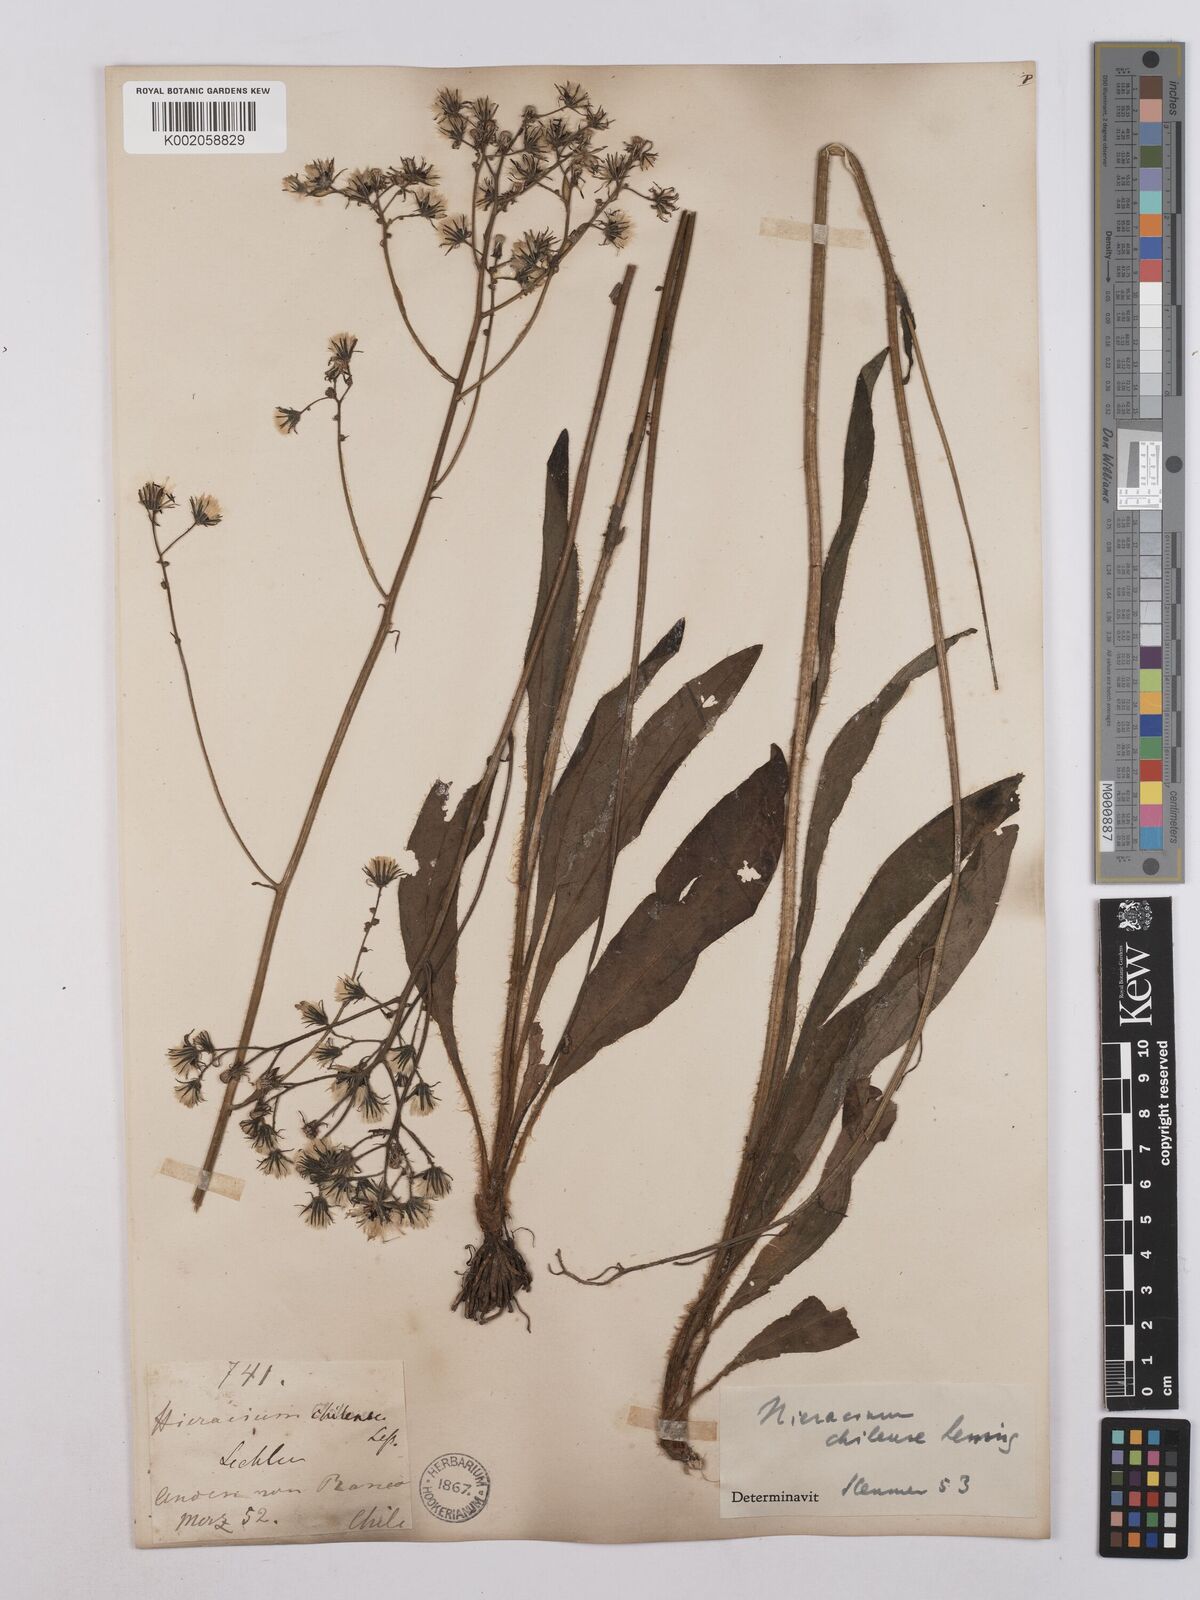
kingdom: Plantae
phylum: Tracheophyta
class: Magnoliopsida
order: Asterales
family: Asteraceae
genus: Hieracium
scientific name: Hieracium chilense
